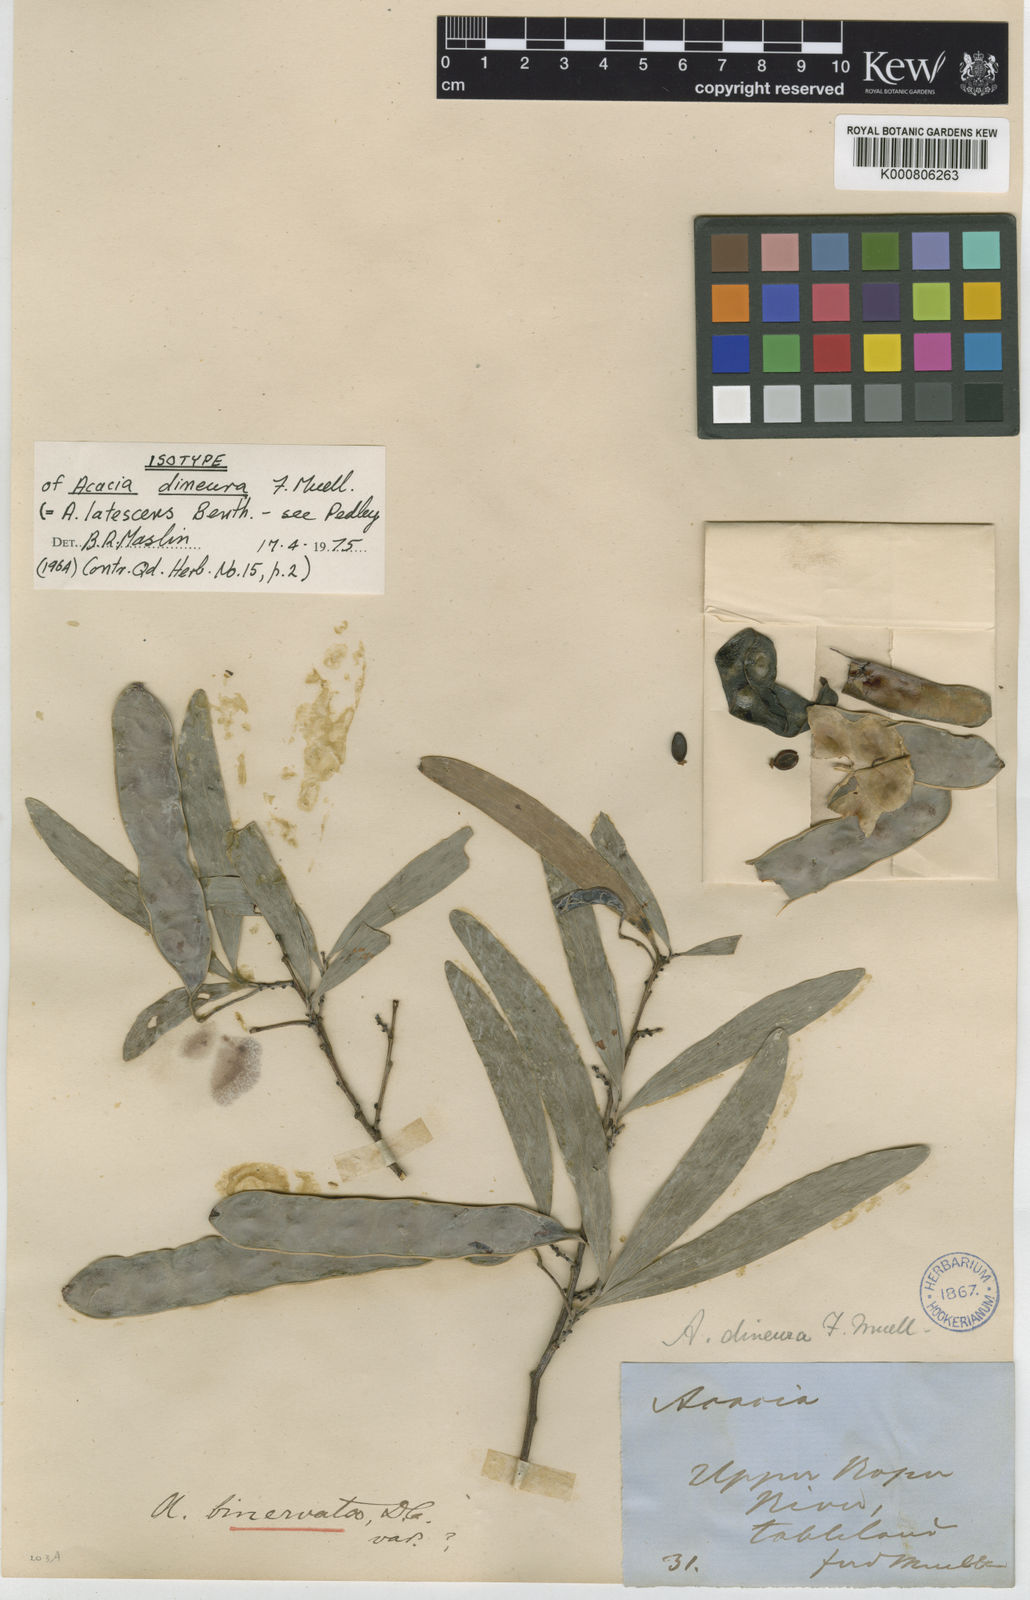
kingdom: Plantae
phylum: Tracheophyta
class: Magnoliopsida
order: Fabales
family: Fabaceae
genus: Acacia
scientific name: Acacia latescens
